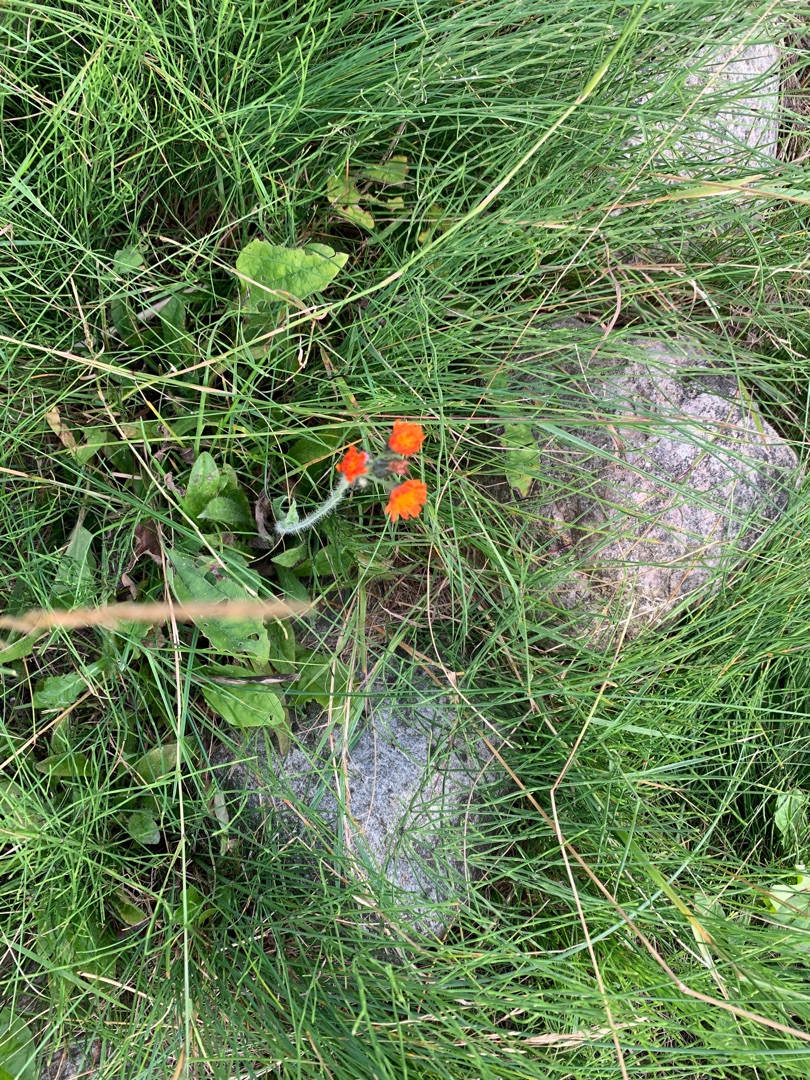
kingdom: Plantae
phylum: Tracheophyta
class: Magnoliopsida
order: Asterales
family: Asteraceae
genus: Pilosella
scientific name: Pilosella aurantiaca
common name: Pomerans-høgeurt
